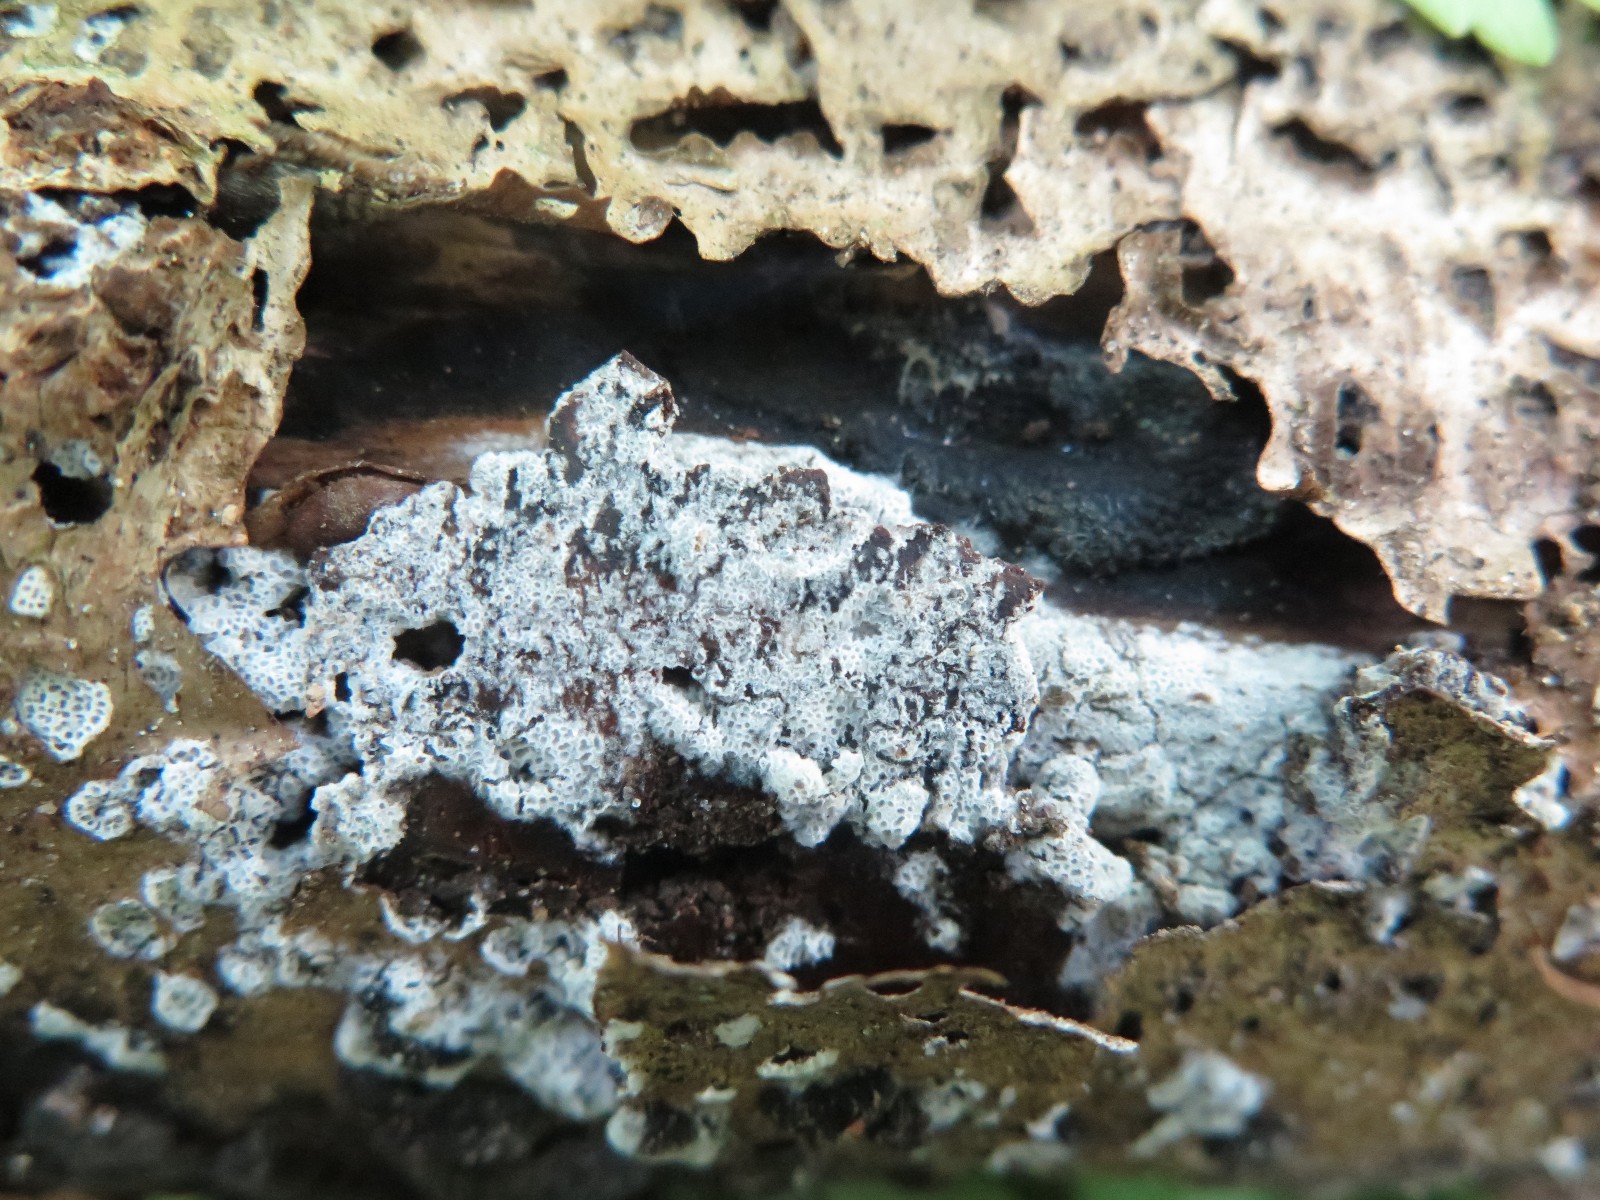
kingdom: Fungi
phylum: Basidiomycota
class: Agaricomycetes
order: Polyporales
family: Irpicaceae
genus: Ceriporia
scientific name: Ceriporia reticulata
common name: netagtig voksporesvamp
